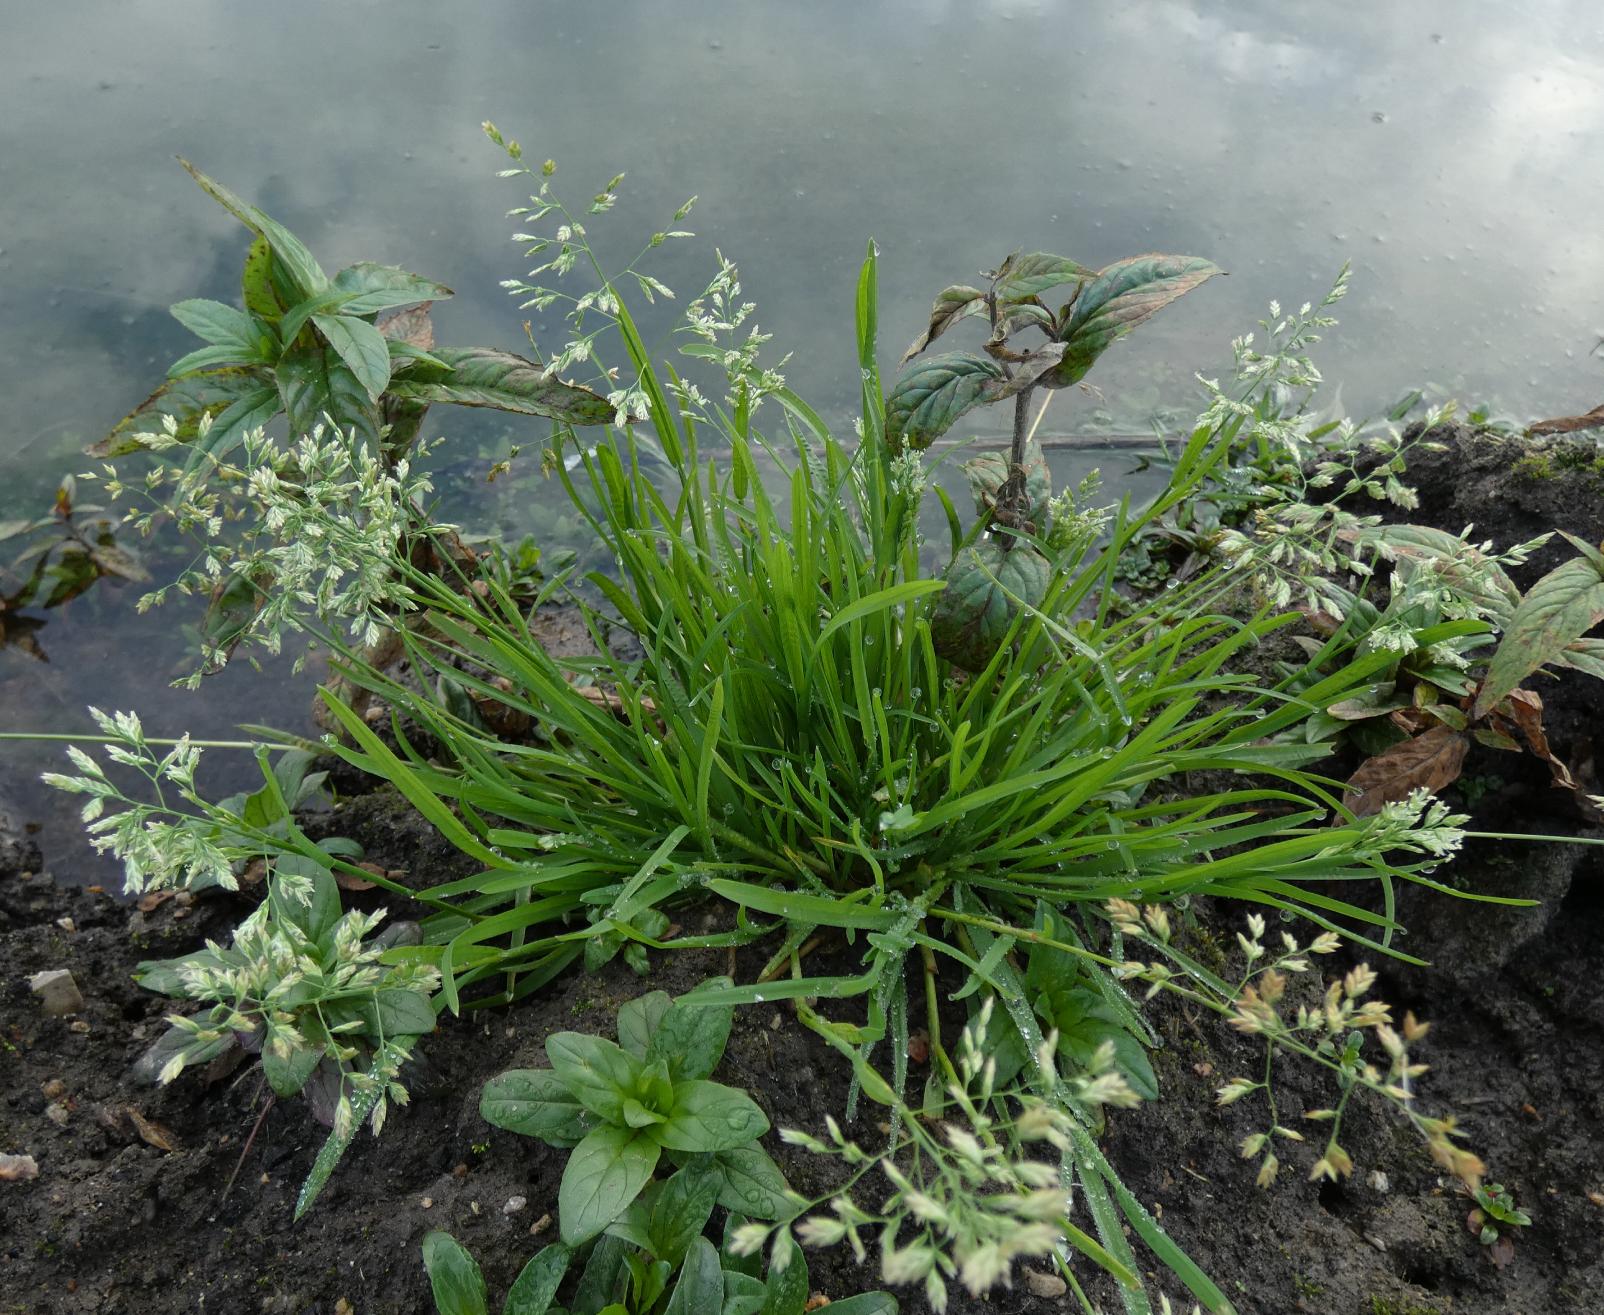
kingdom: Plantae
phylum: Tracheophyta
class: Liliopsida
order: Poales
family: Poaceae
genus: Poa
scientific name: Poa annua
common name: Enårig rapgræs
